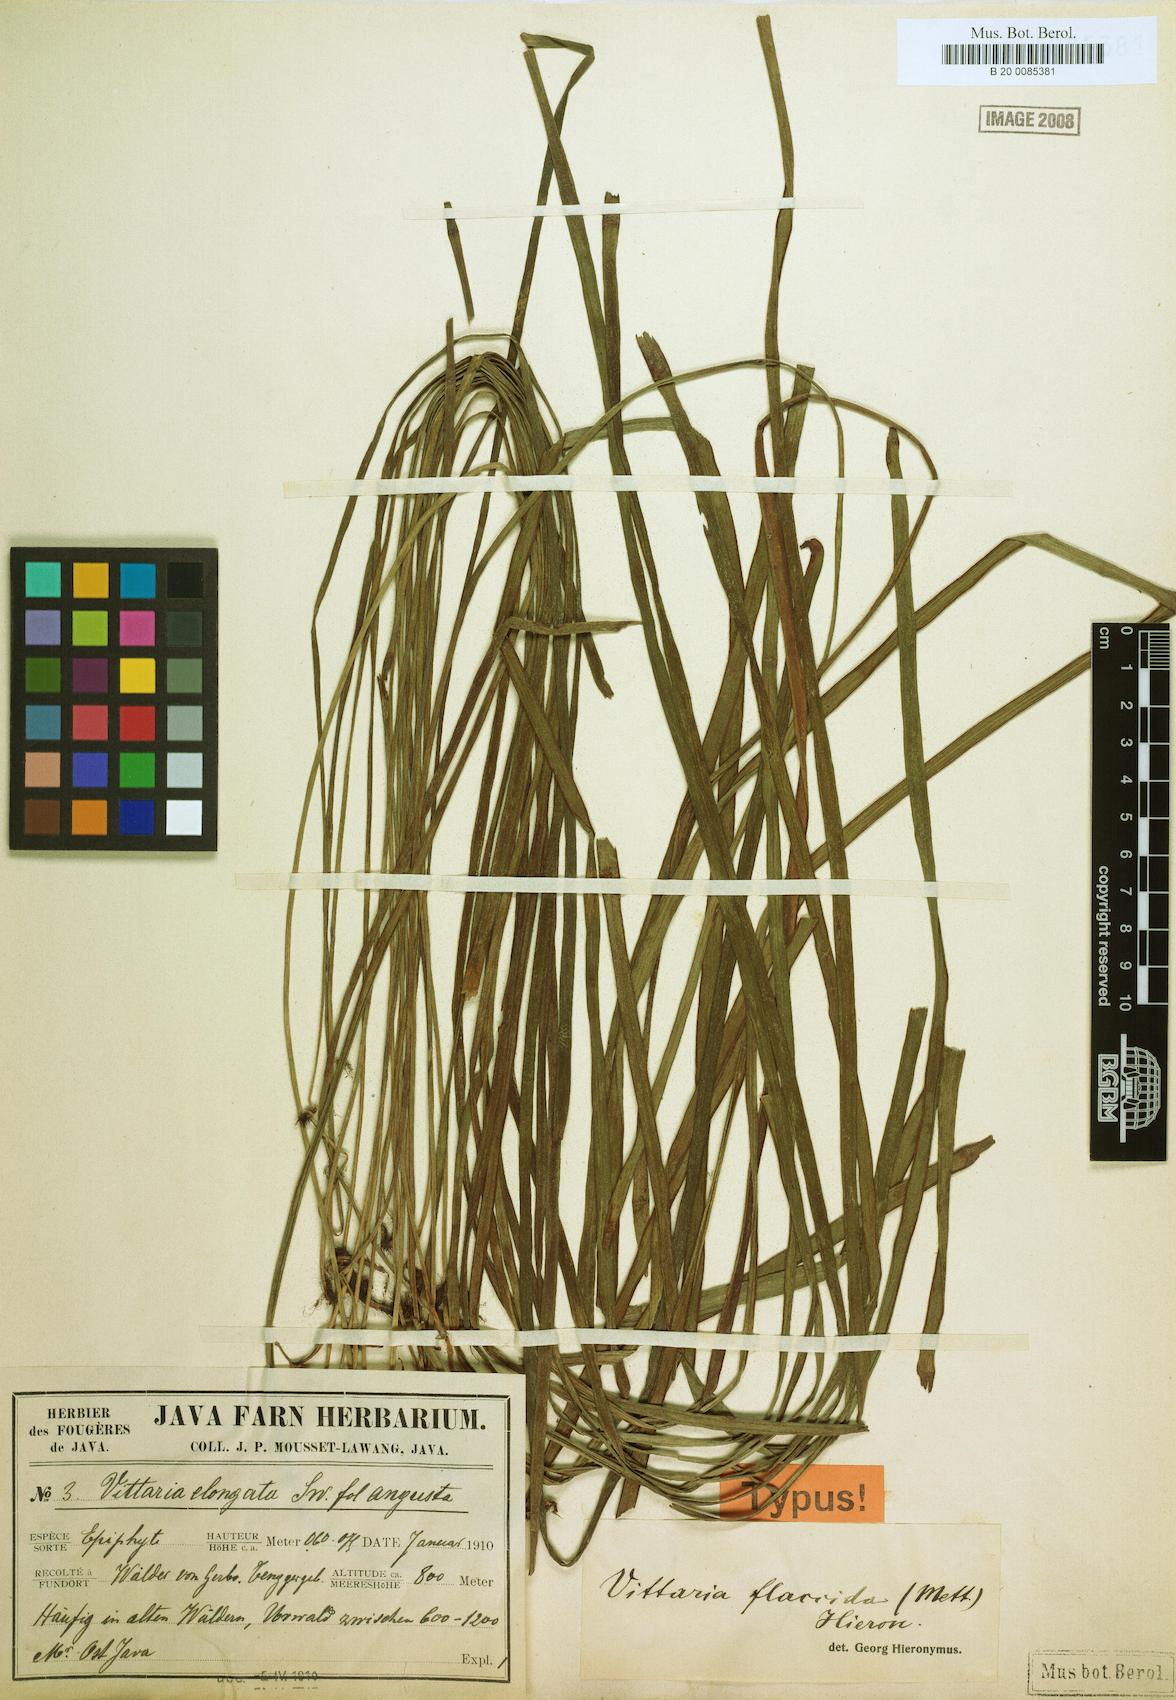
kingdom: Plantae
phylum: Tracheophyta
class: Polypodiopsida
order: Polypodiales
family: Pteridaceae
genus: Haplopteris
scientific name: Haplopteris elongata
